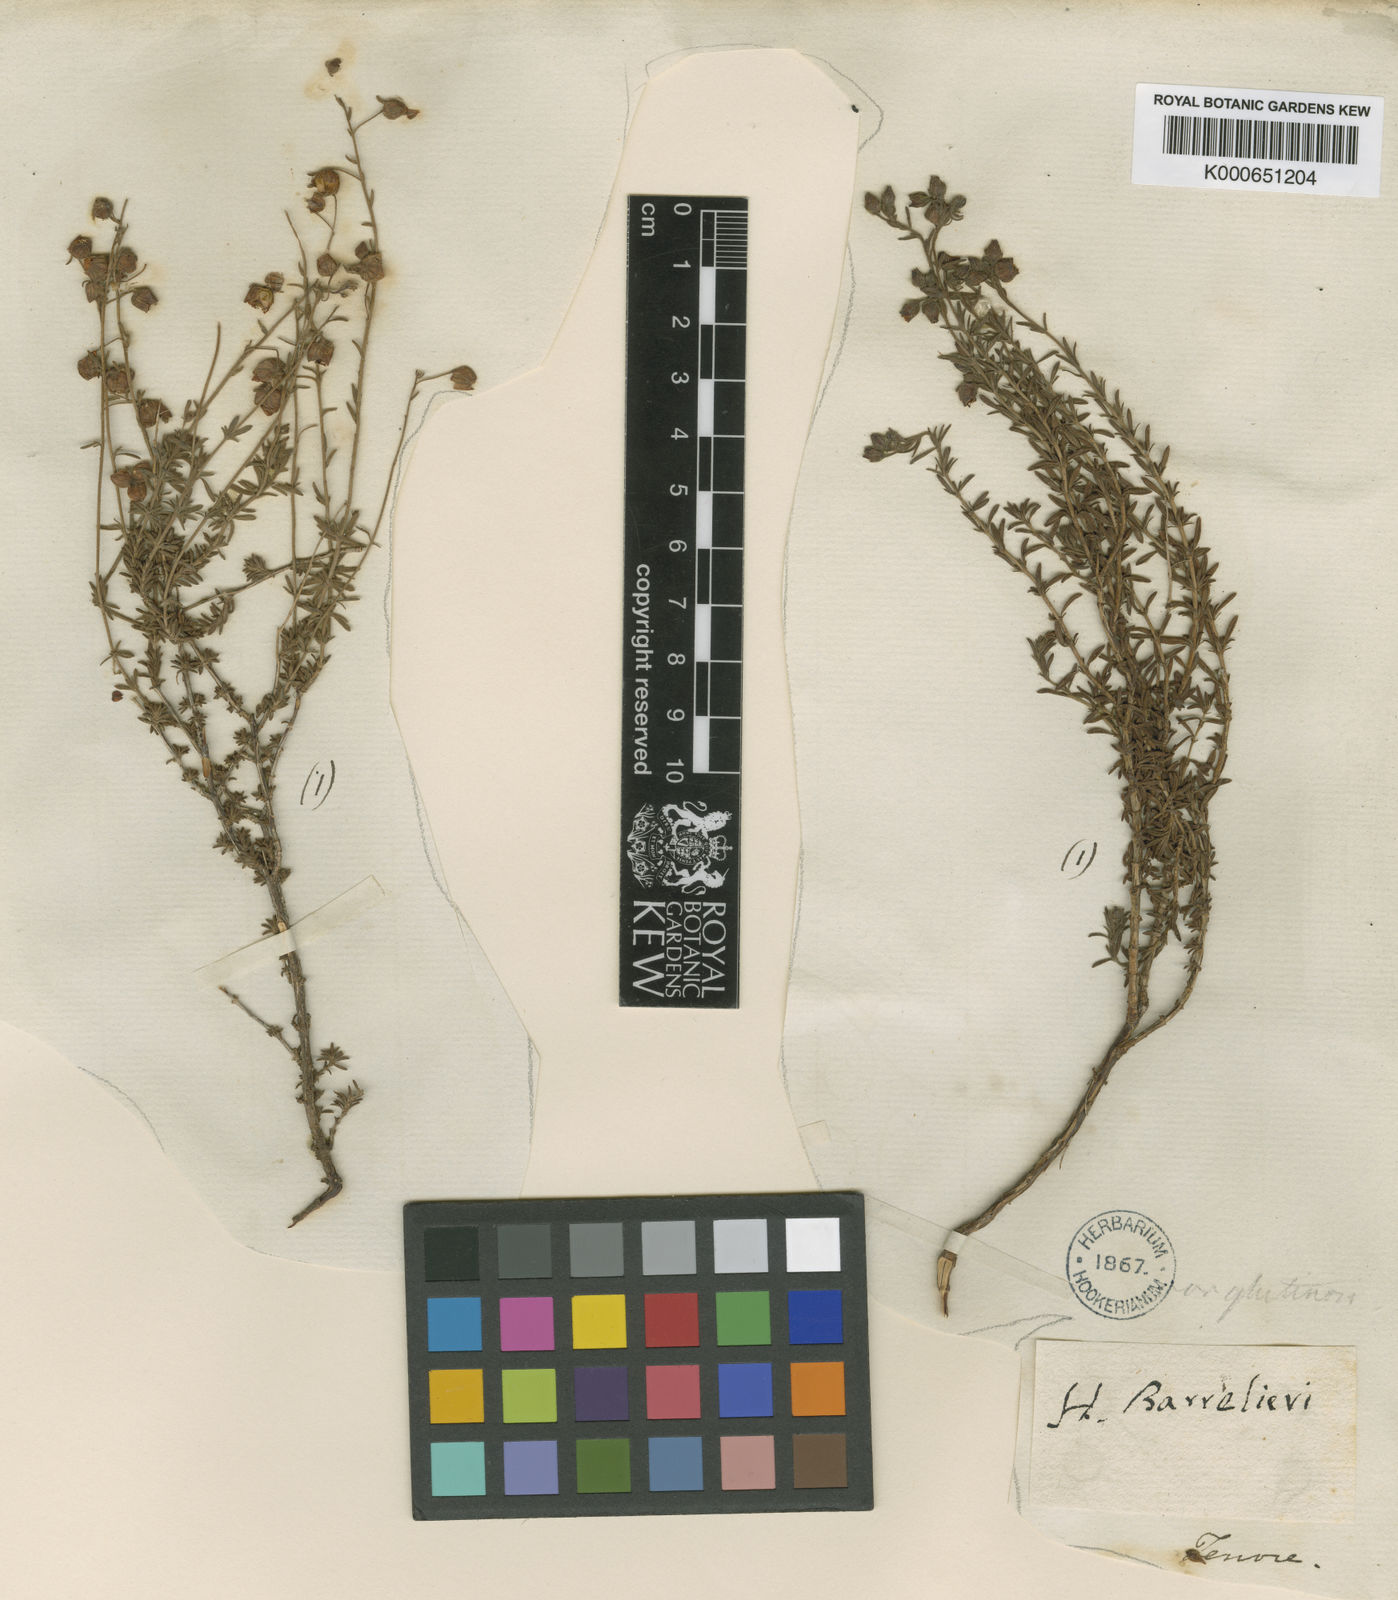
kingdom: Plantae
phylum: Tracheophyta
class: Magnoliopsida
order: Malvales
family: Cistaceae
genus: Fumana
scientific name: Fumana
